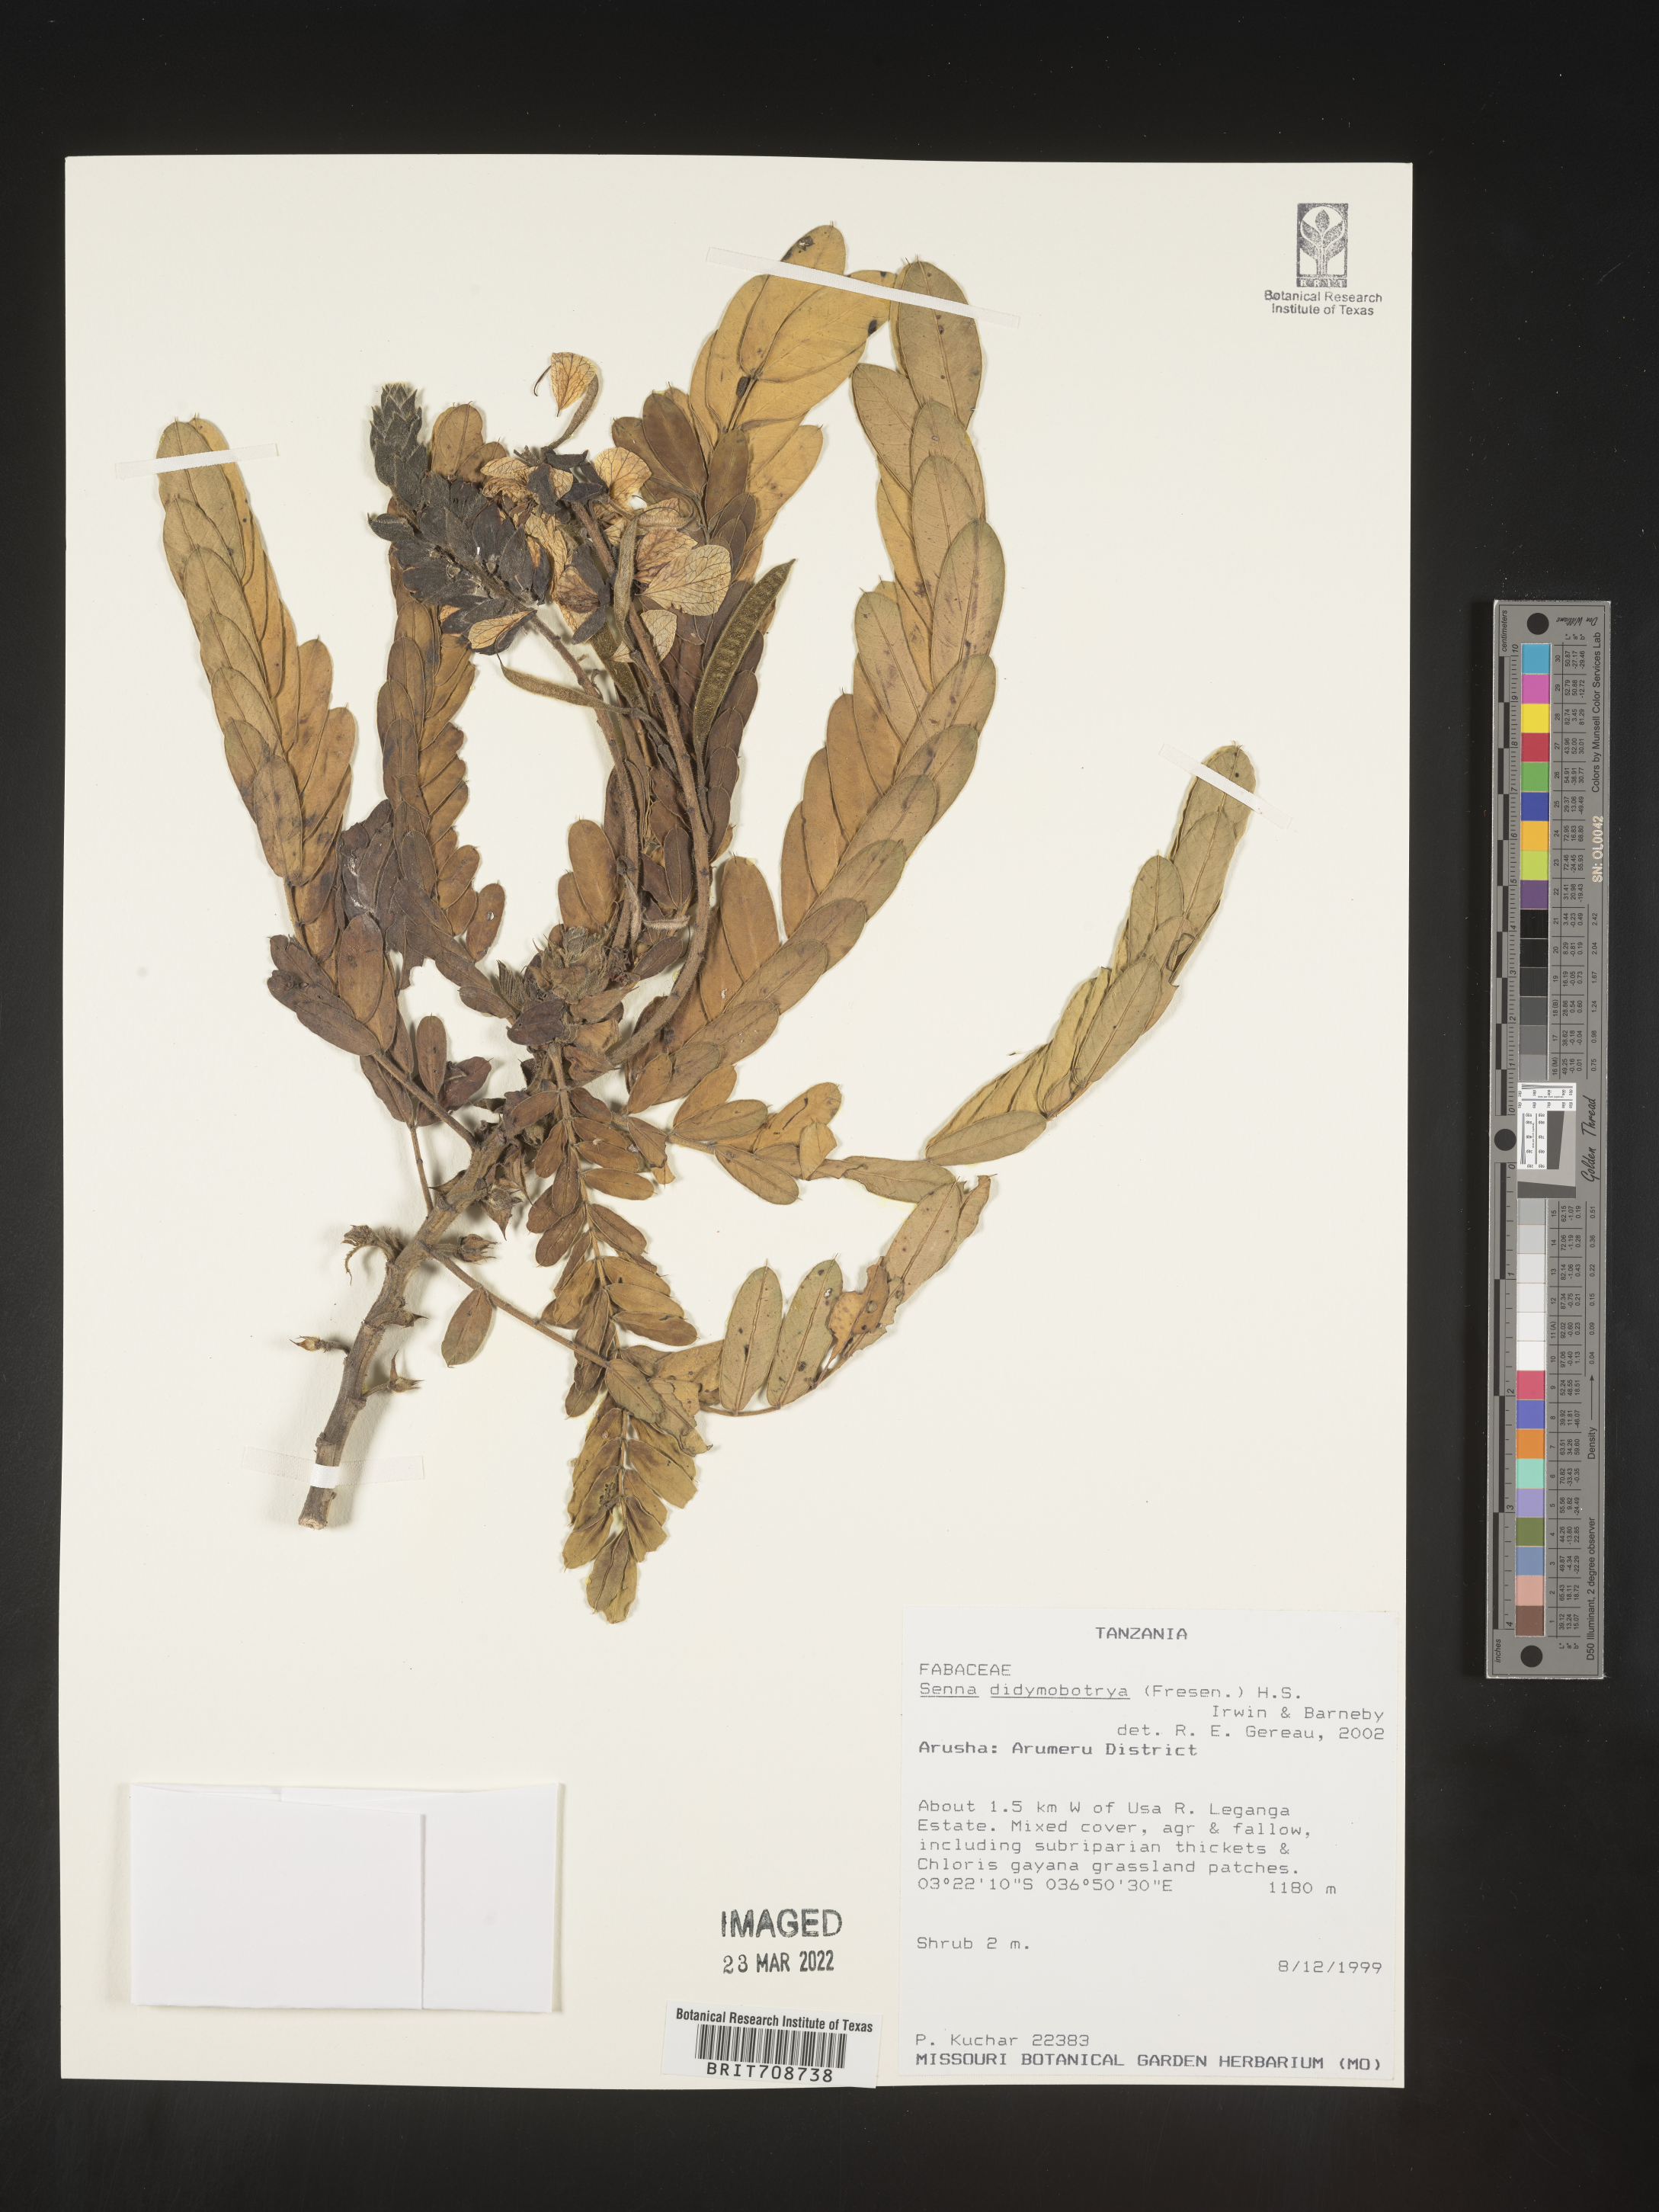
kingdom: Plantae
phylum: Tracheophyta
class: Magnoliopsida
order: Fabales
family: Fabaceae
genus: Senna
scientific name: Senna
